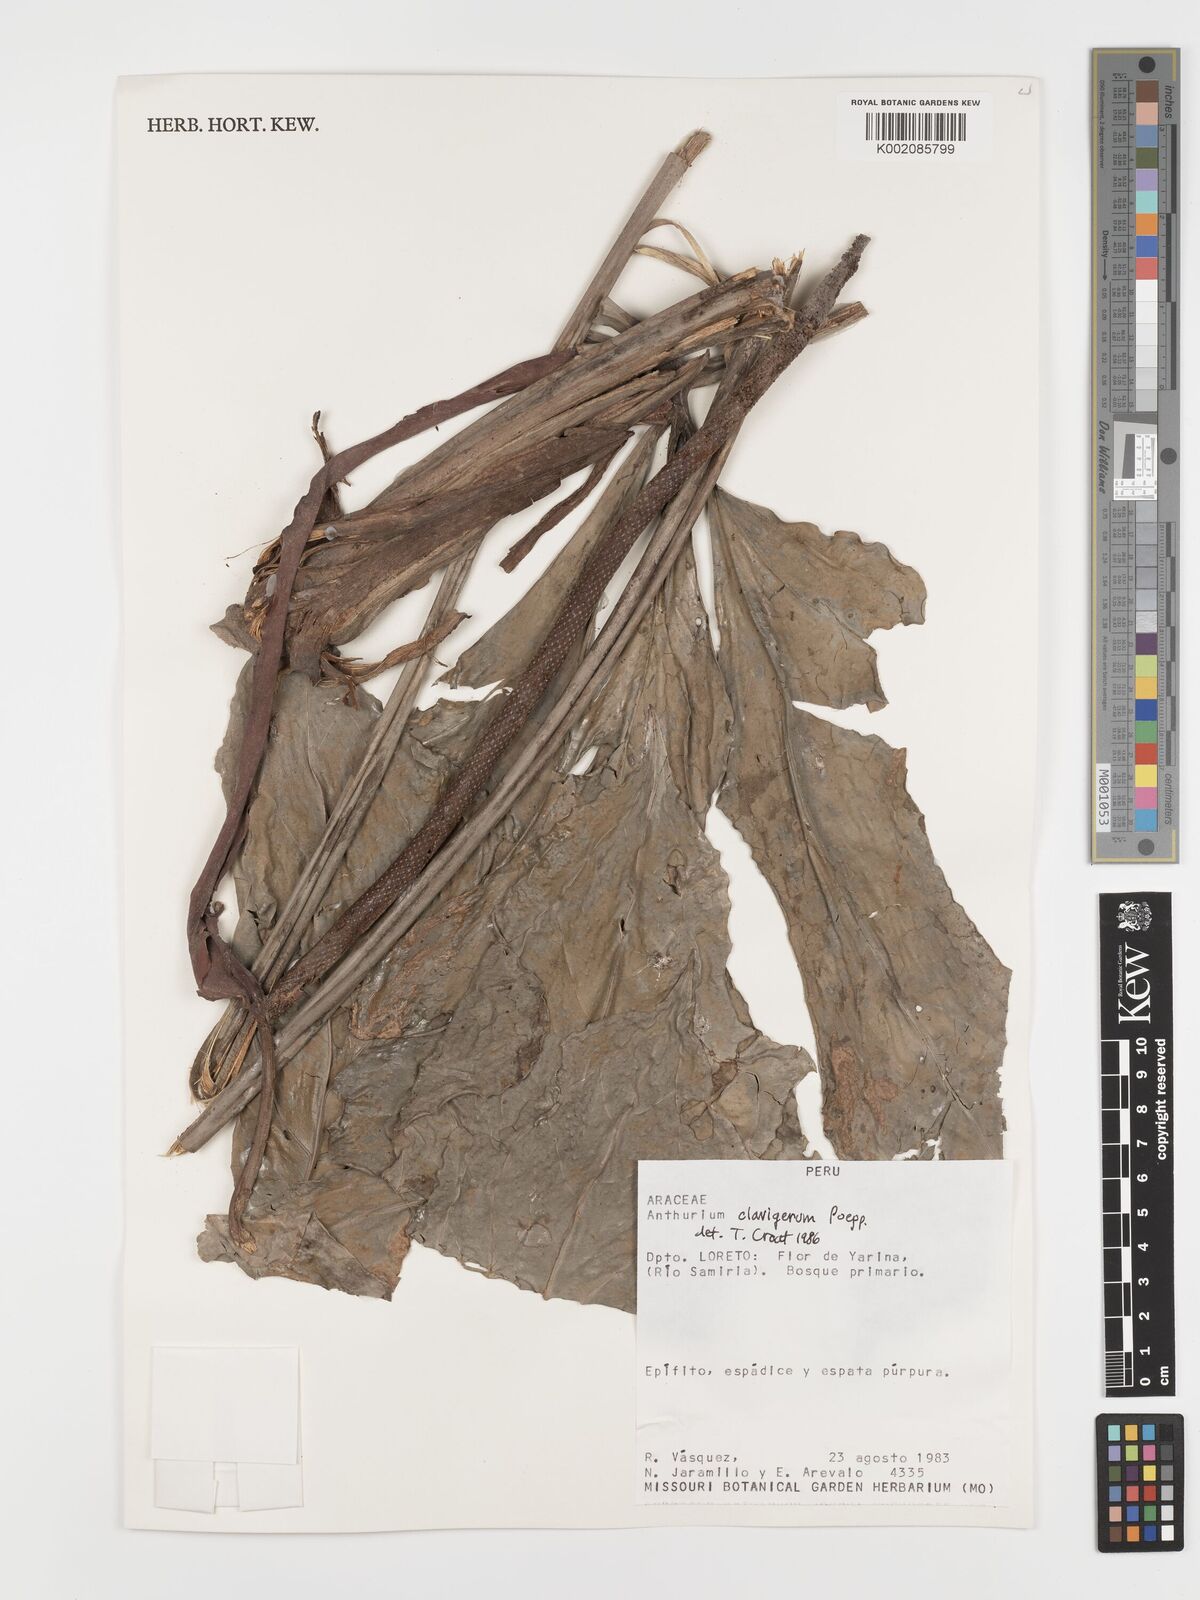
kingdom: Plantae
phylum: Tracheophyta
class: Liliopsida
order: Alismatales
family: Araceae
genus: Anthurium
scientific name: Anthurium clavigerum
